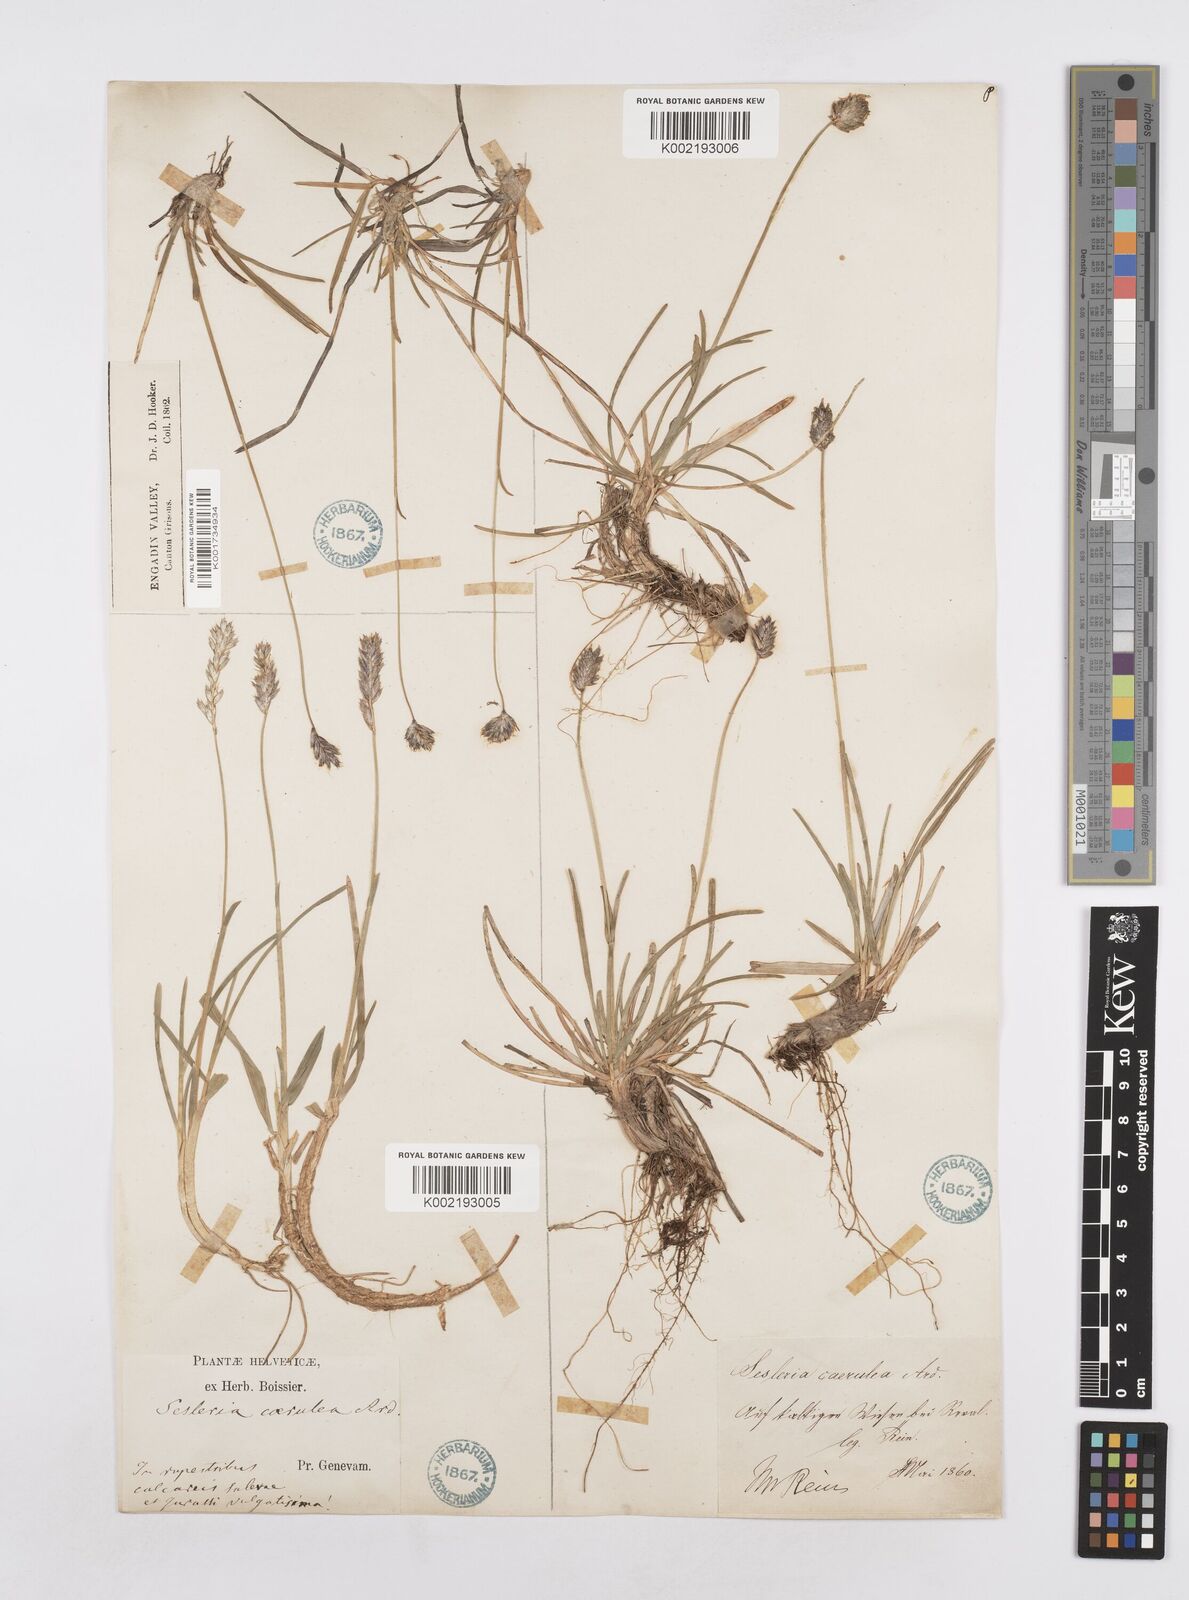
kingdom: Plantae
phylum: Tracheophyta
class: Liliopsida
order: Poales
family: Poaceae
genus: Sesleria
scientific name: Sesleria caerulea
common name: Blue moor-grass
